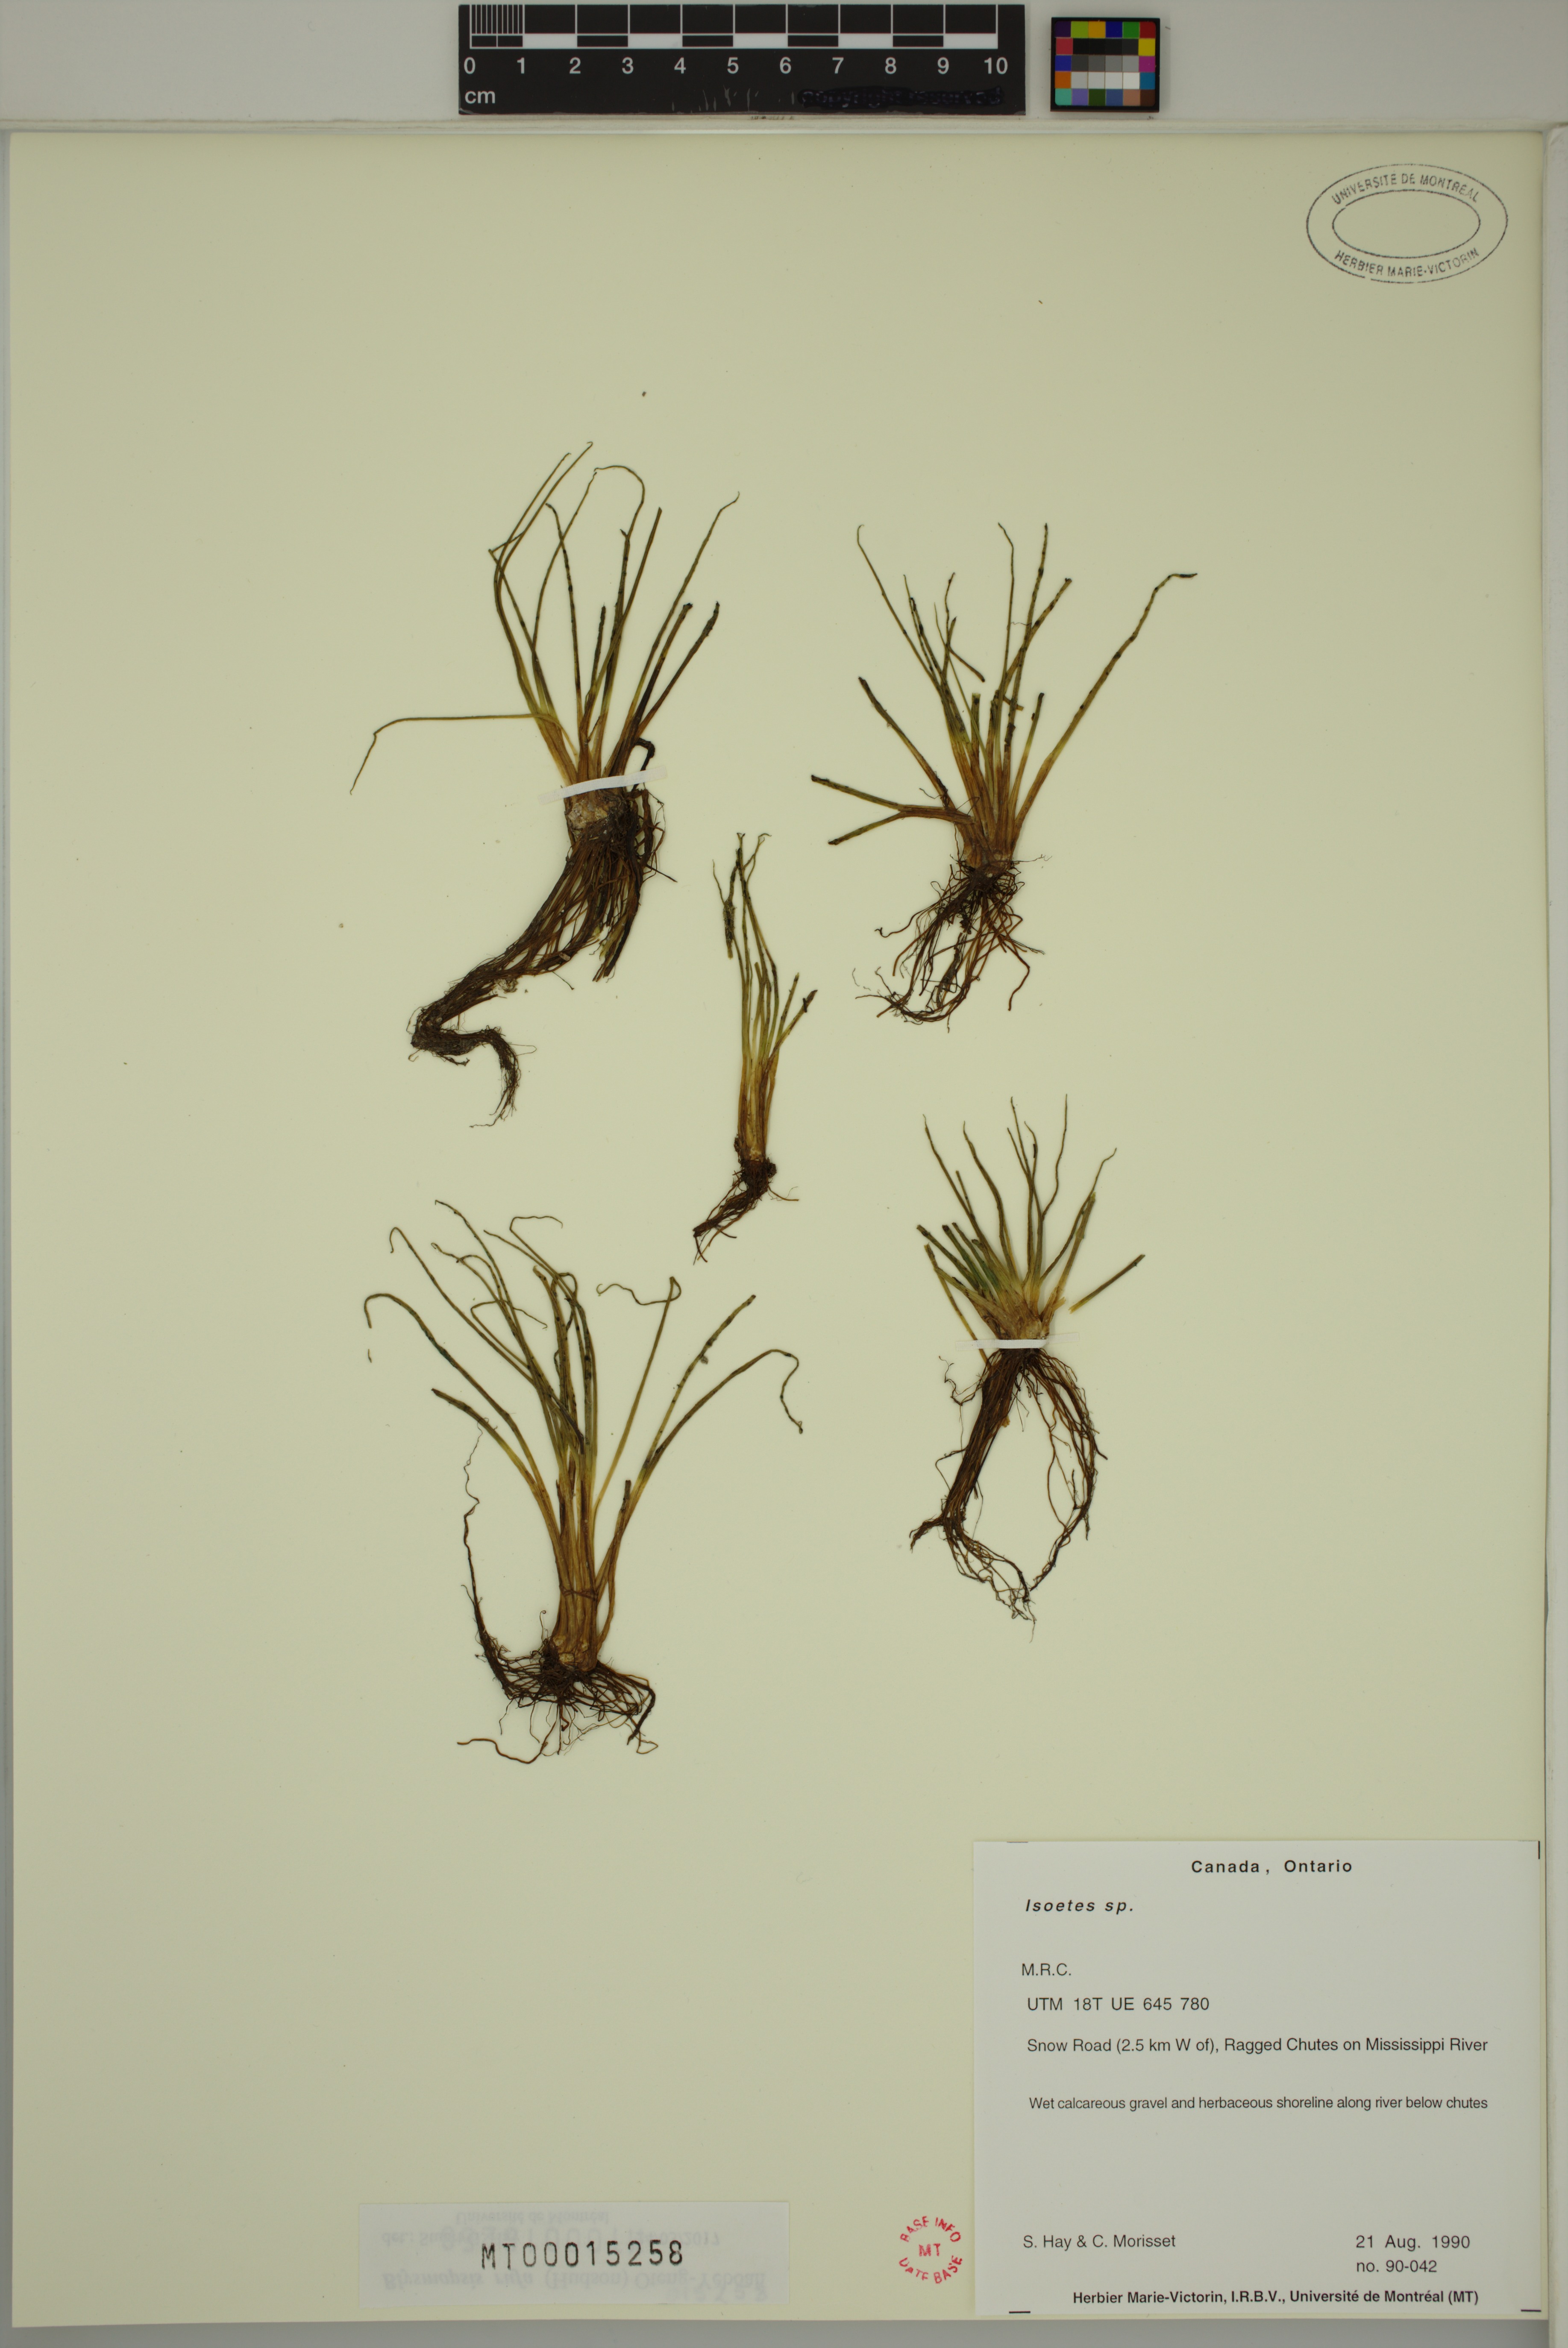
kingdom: Plantae
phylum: Tracheophyta
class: Lycopodiopsida
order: Isoetales
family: Isoetaceae
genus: Isoetes
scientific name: Isoetes echinospora
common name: Spring quillwort
